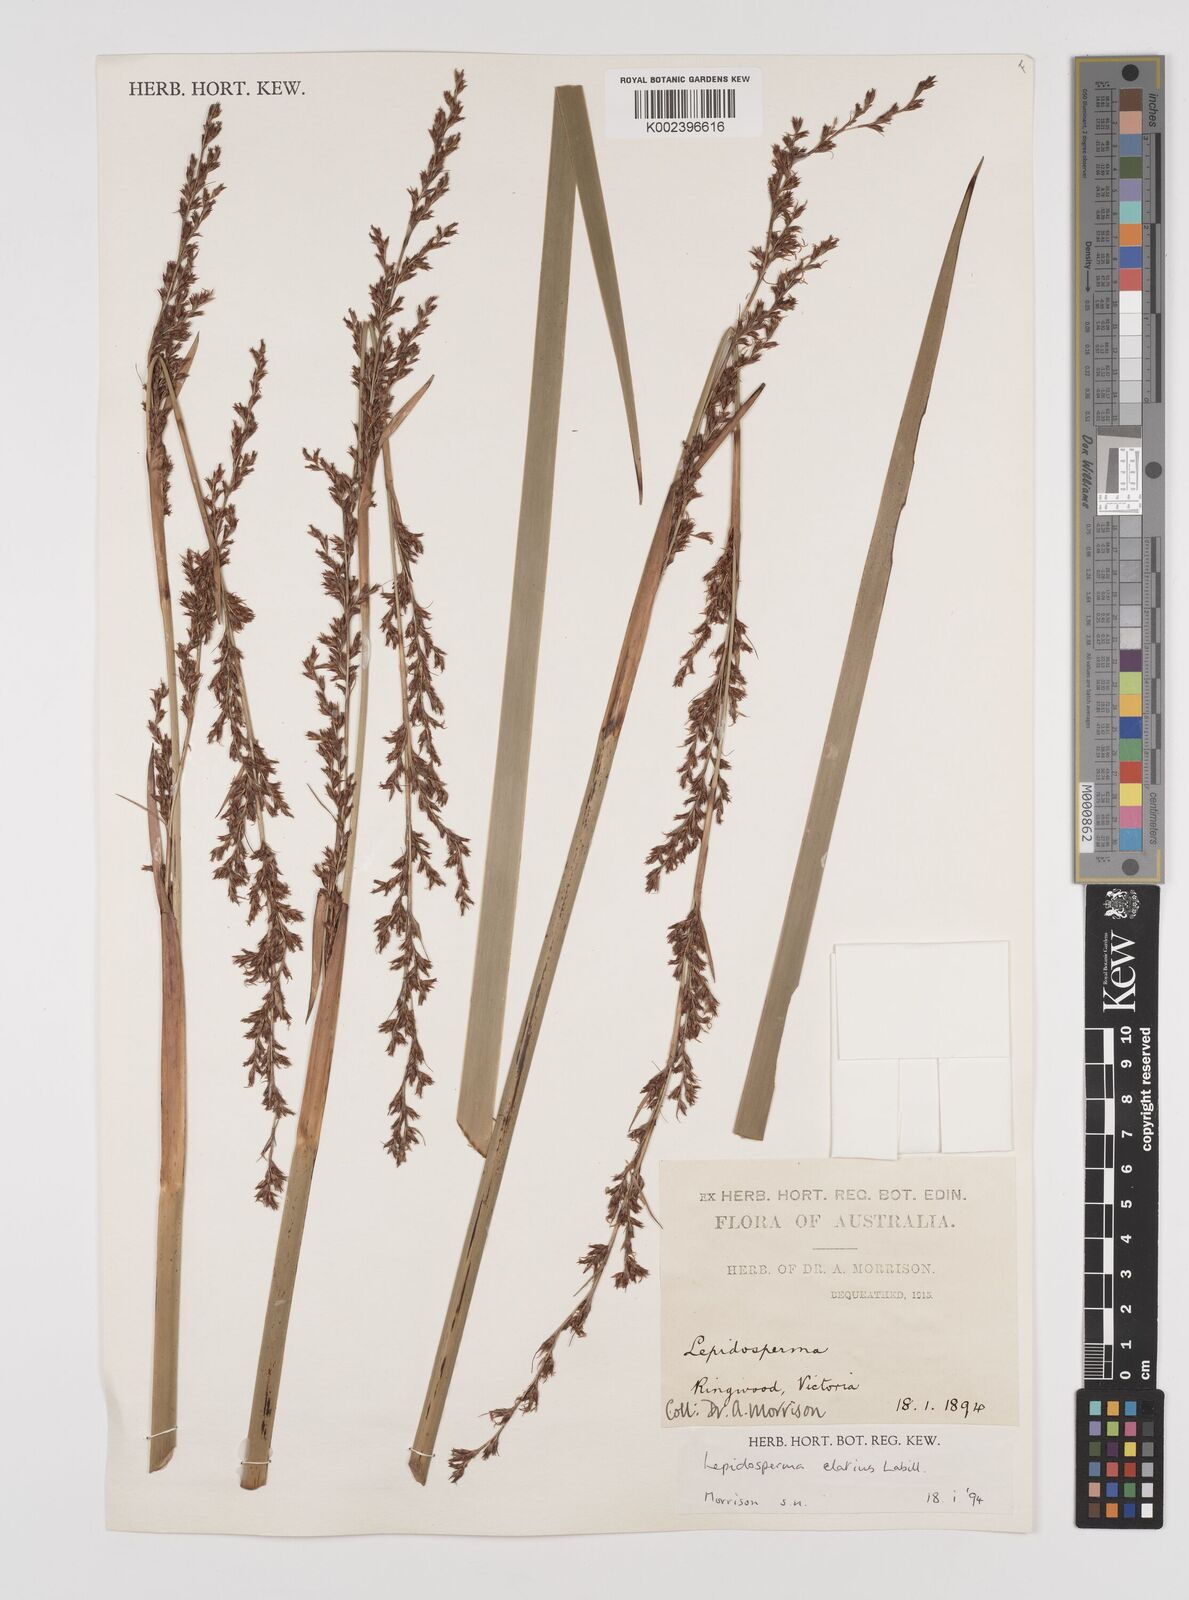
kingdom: Plantae
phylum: Tracheophyta
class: Liliopsida
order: Poales
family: Cyperaceae
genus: Lepidosperma
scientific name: Lepidosperma elatius
